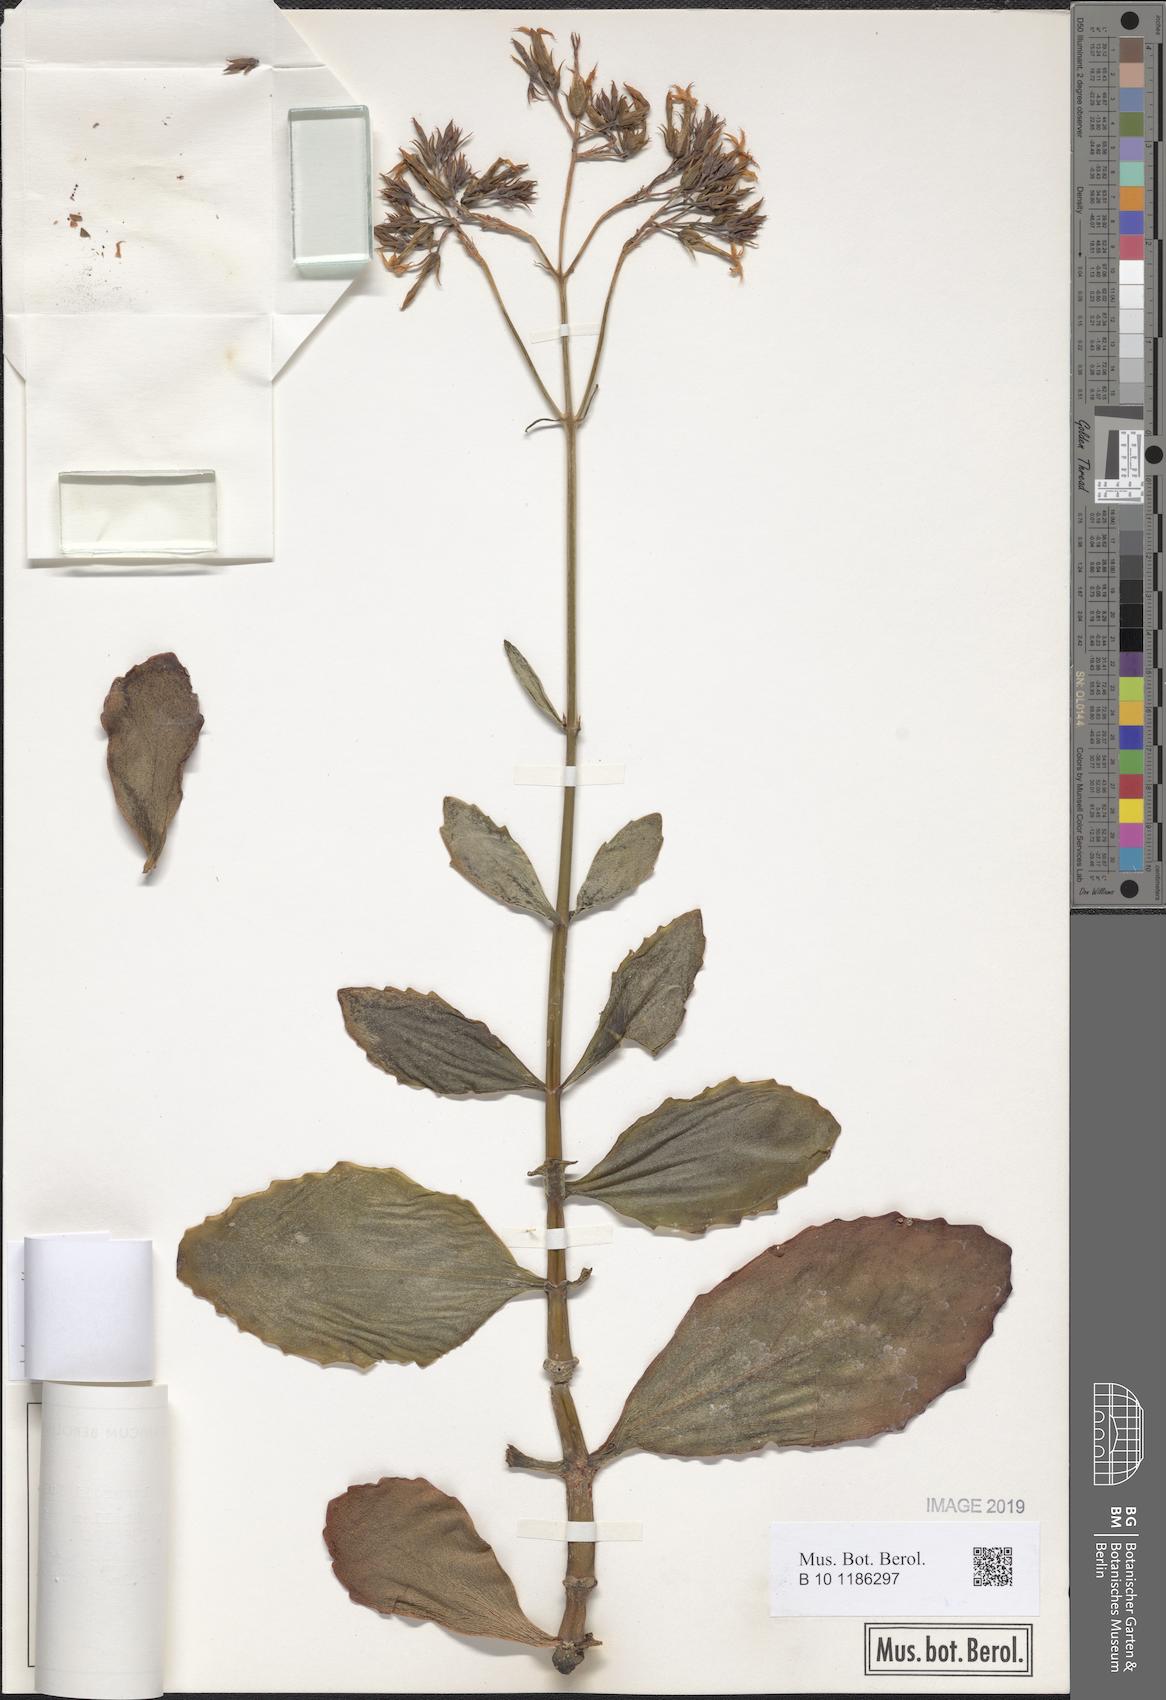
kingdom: Plantae
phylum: Tracheophyta
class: Magnoliopsida
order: Saxifragales
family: Crassulaceae
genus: Kalanchoe
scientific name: Kalanchoe prittwitzii
